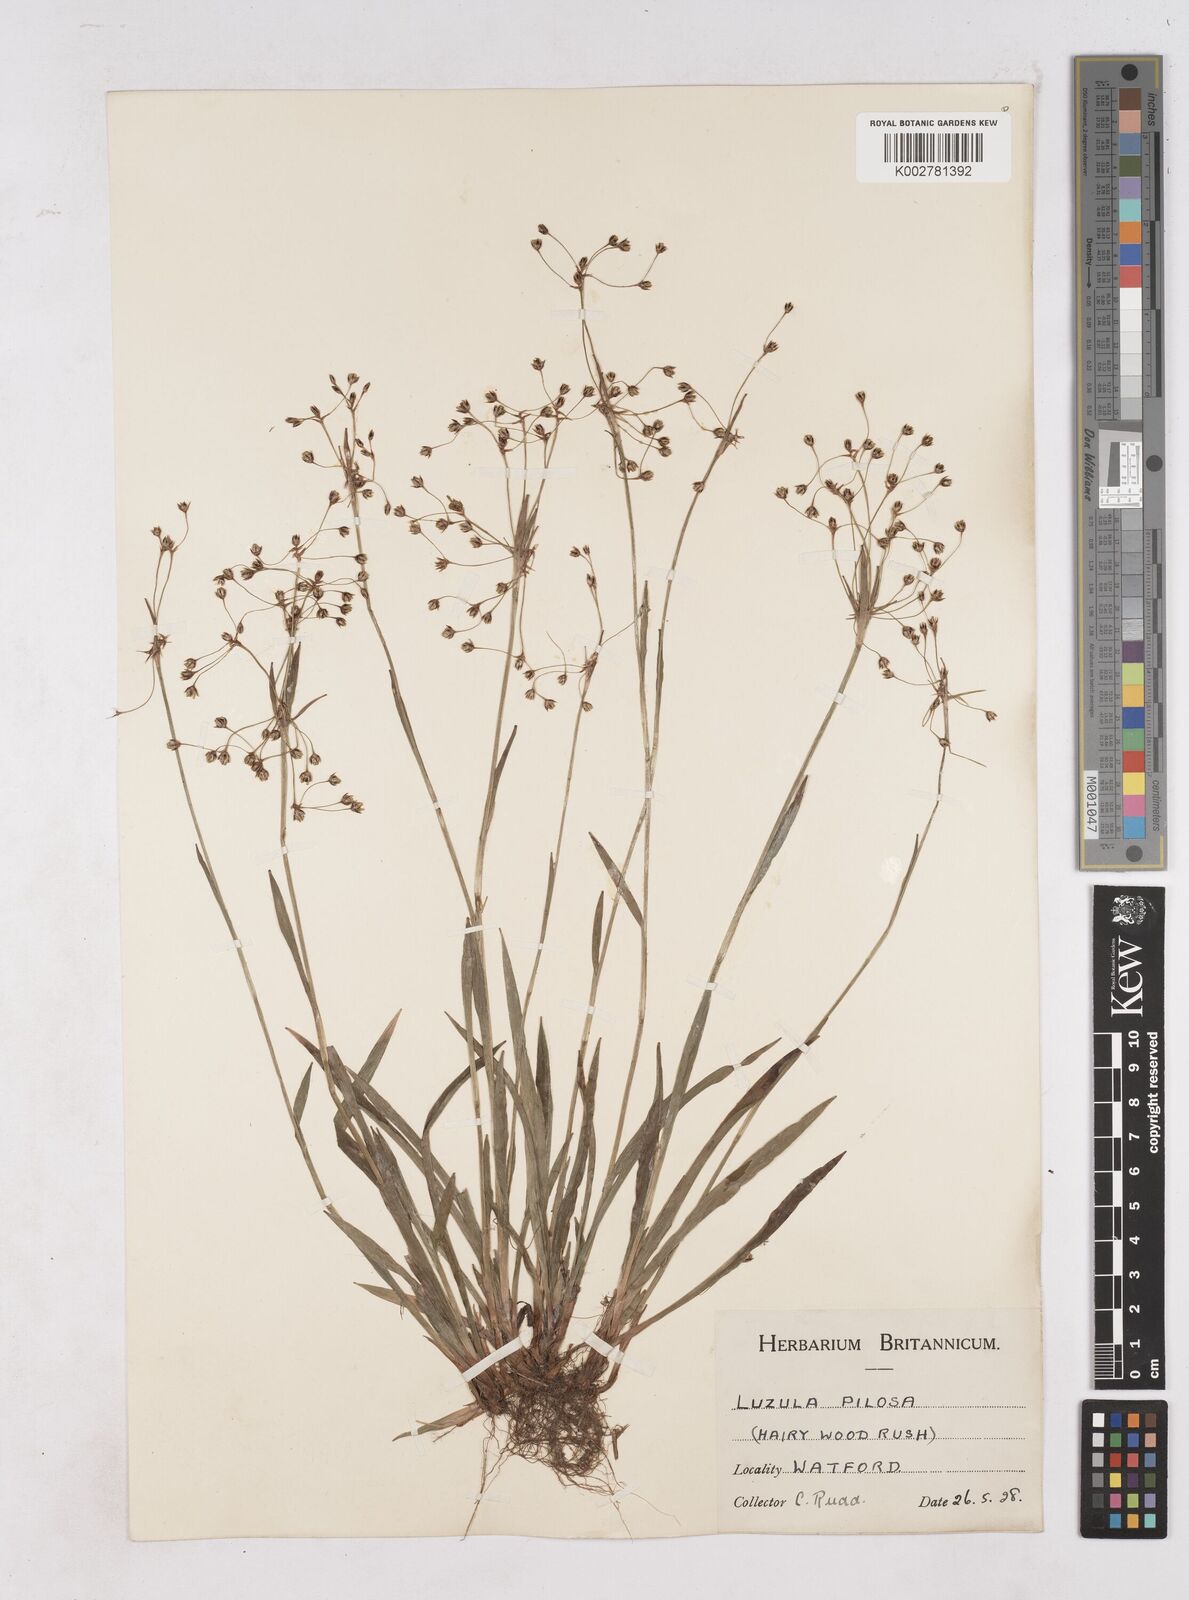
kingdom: Plantae
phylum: Tracheophyta
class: Liliopsida
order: Poales
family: Juncaceae
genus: Luzula
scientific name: Luzula pilosa
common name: Hairy wood-rush
